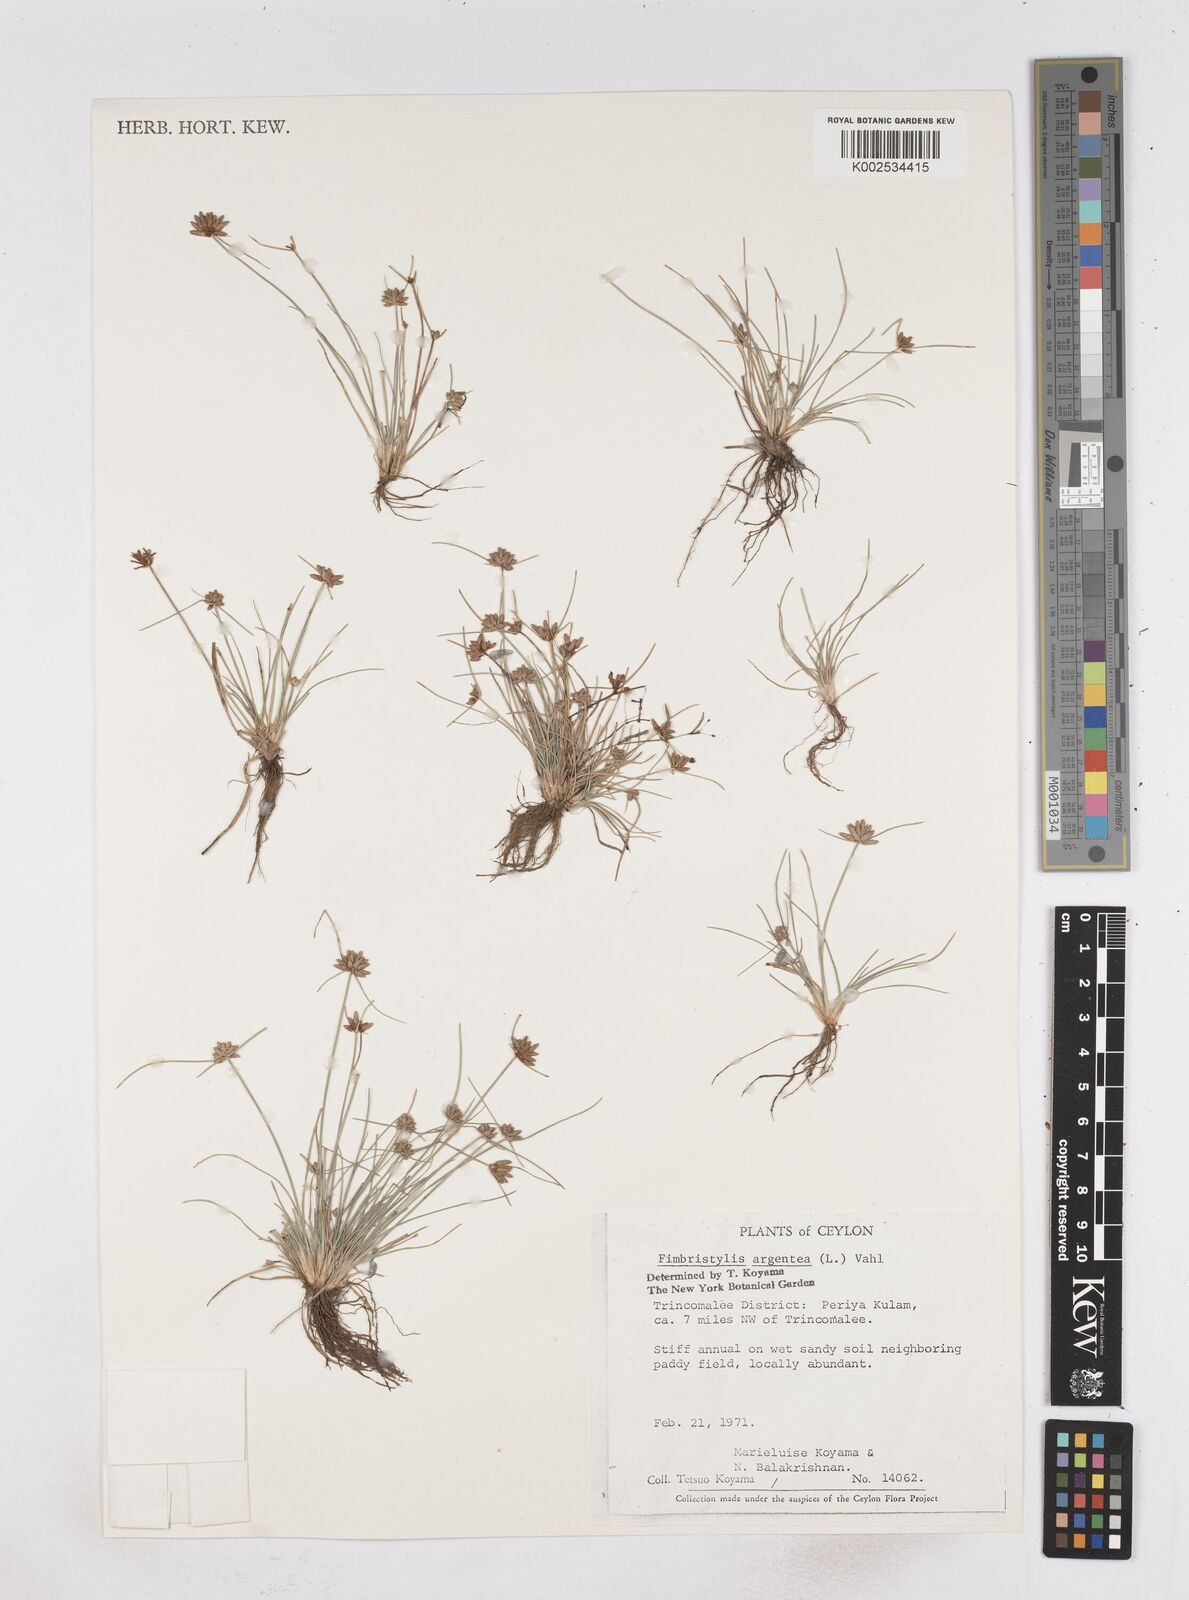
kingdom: Plantae
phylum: Tracheophyta
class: Liliopsida
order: Poales
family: Cyperaceae
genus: Fimbristylis
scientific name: Fimbristylis argentea
